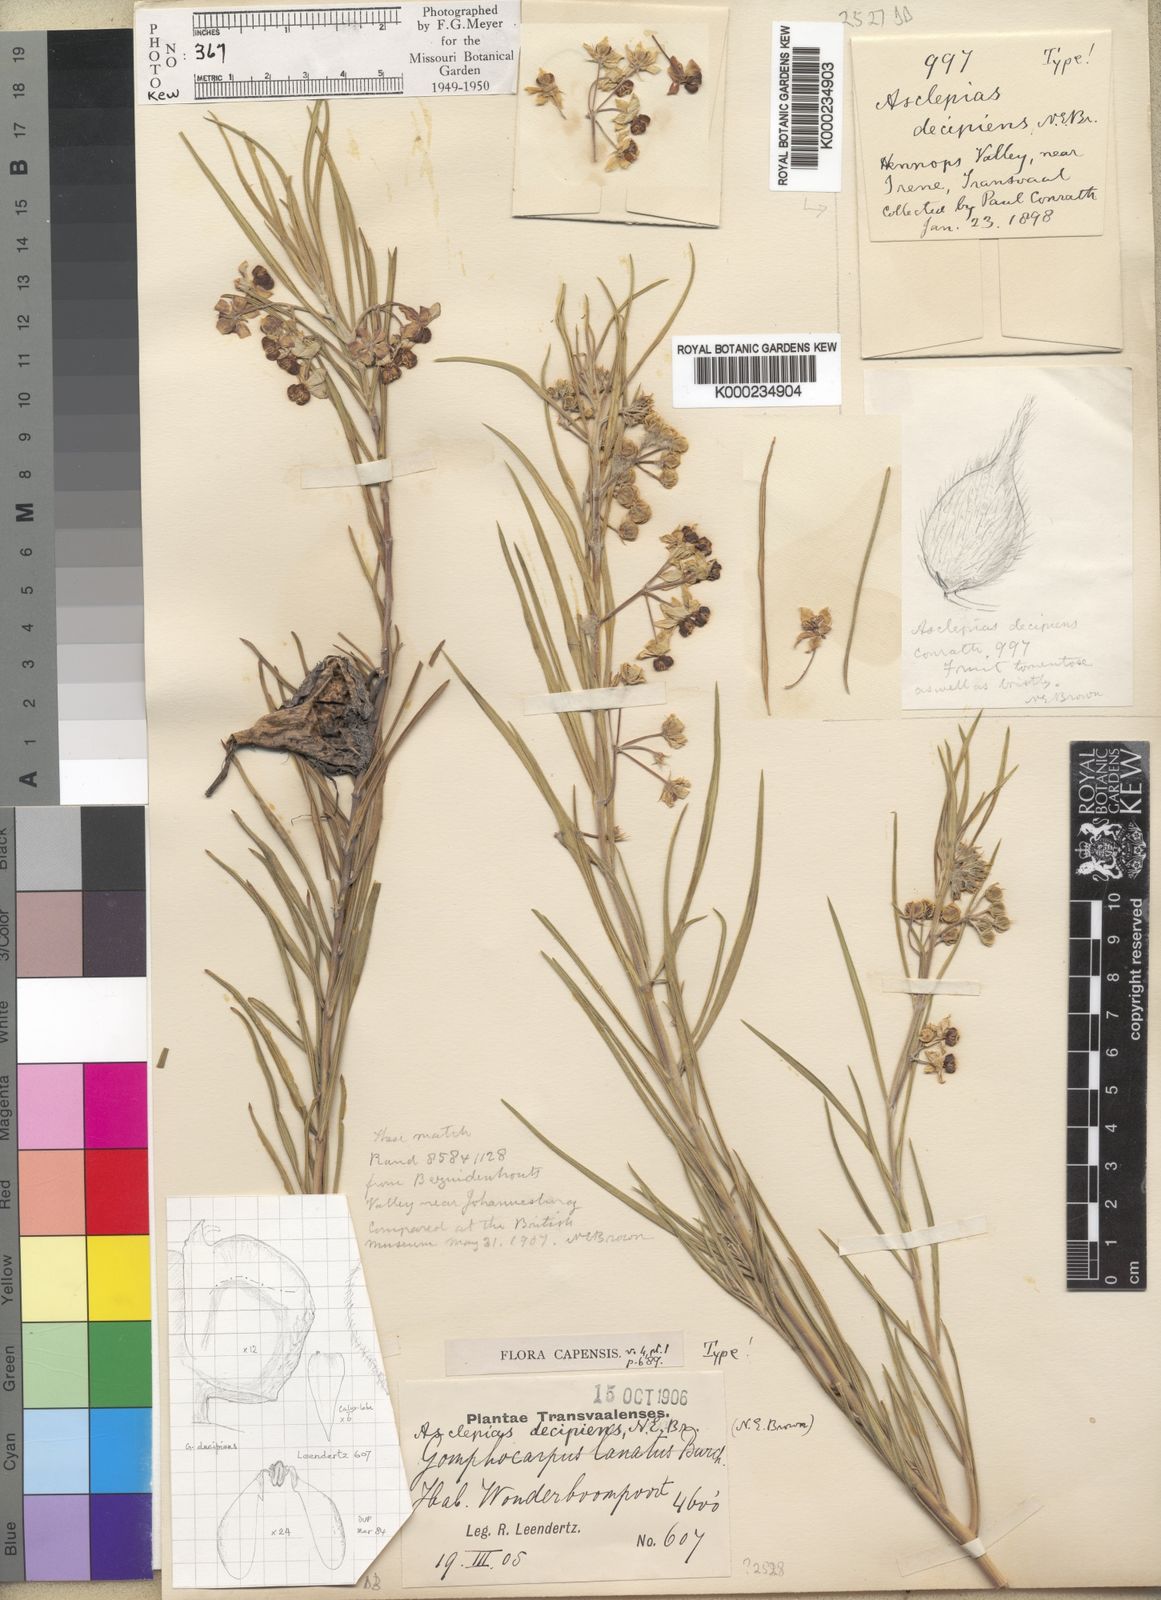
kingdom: Plantae
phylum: Tracheophyta
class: Magnoliopsida
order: Gentianales
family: Apocynaceae
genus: Gomphocarpus
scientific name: Gomphocarpus fruticosus
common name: Milkweed
